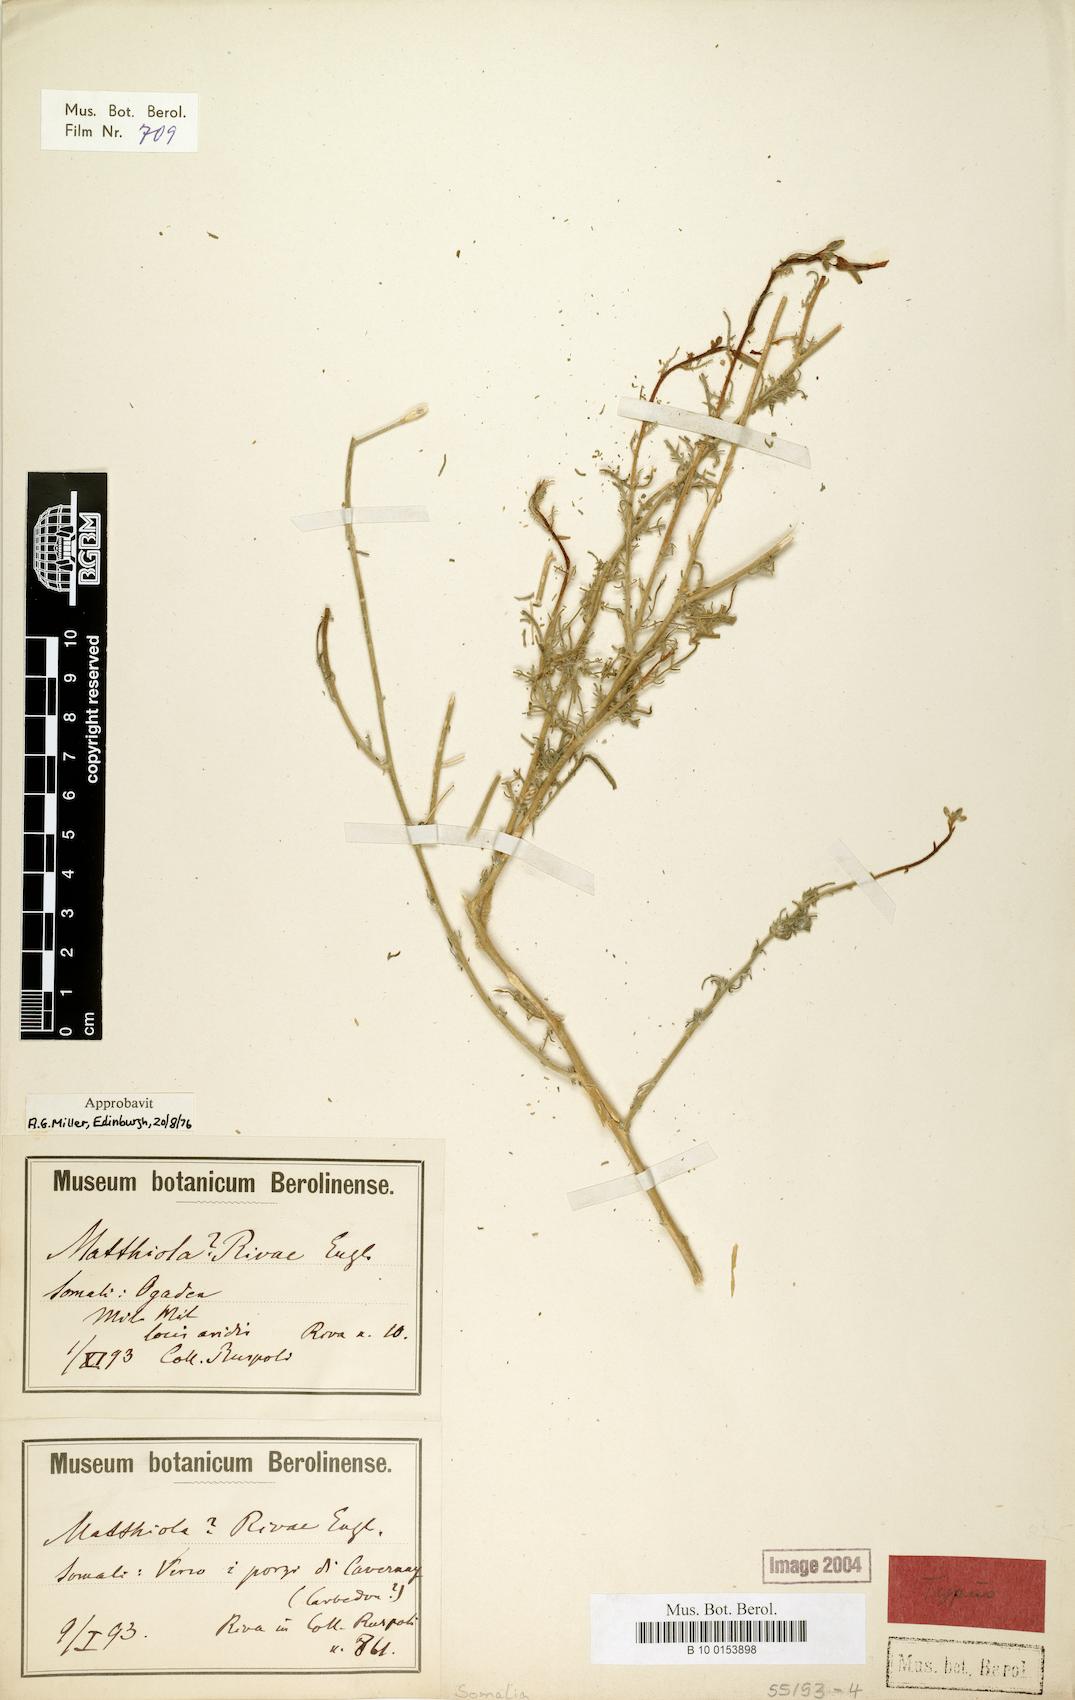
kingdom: Plantae
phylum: Tracheophyta
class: Magnoliopsida
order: Brassicales
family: Brassicaceae
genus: Matthiola
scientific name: Matthiola erlangeriana
